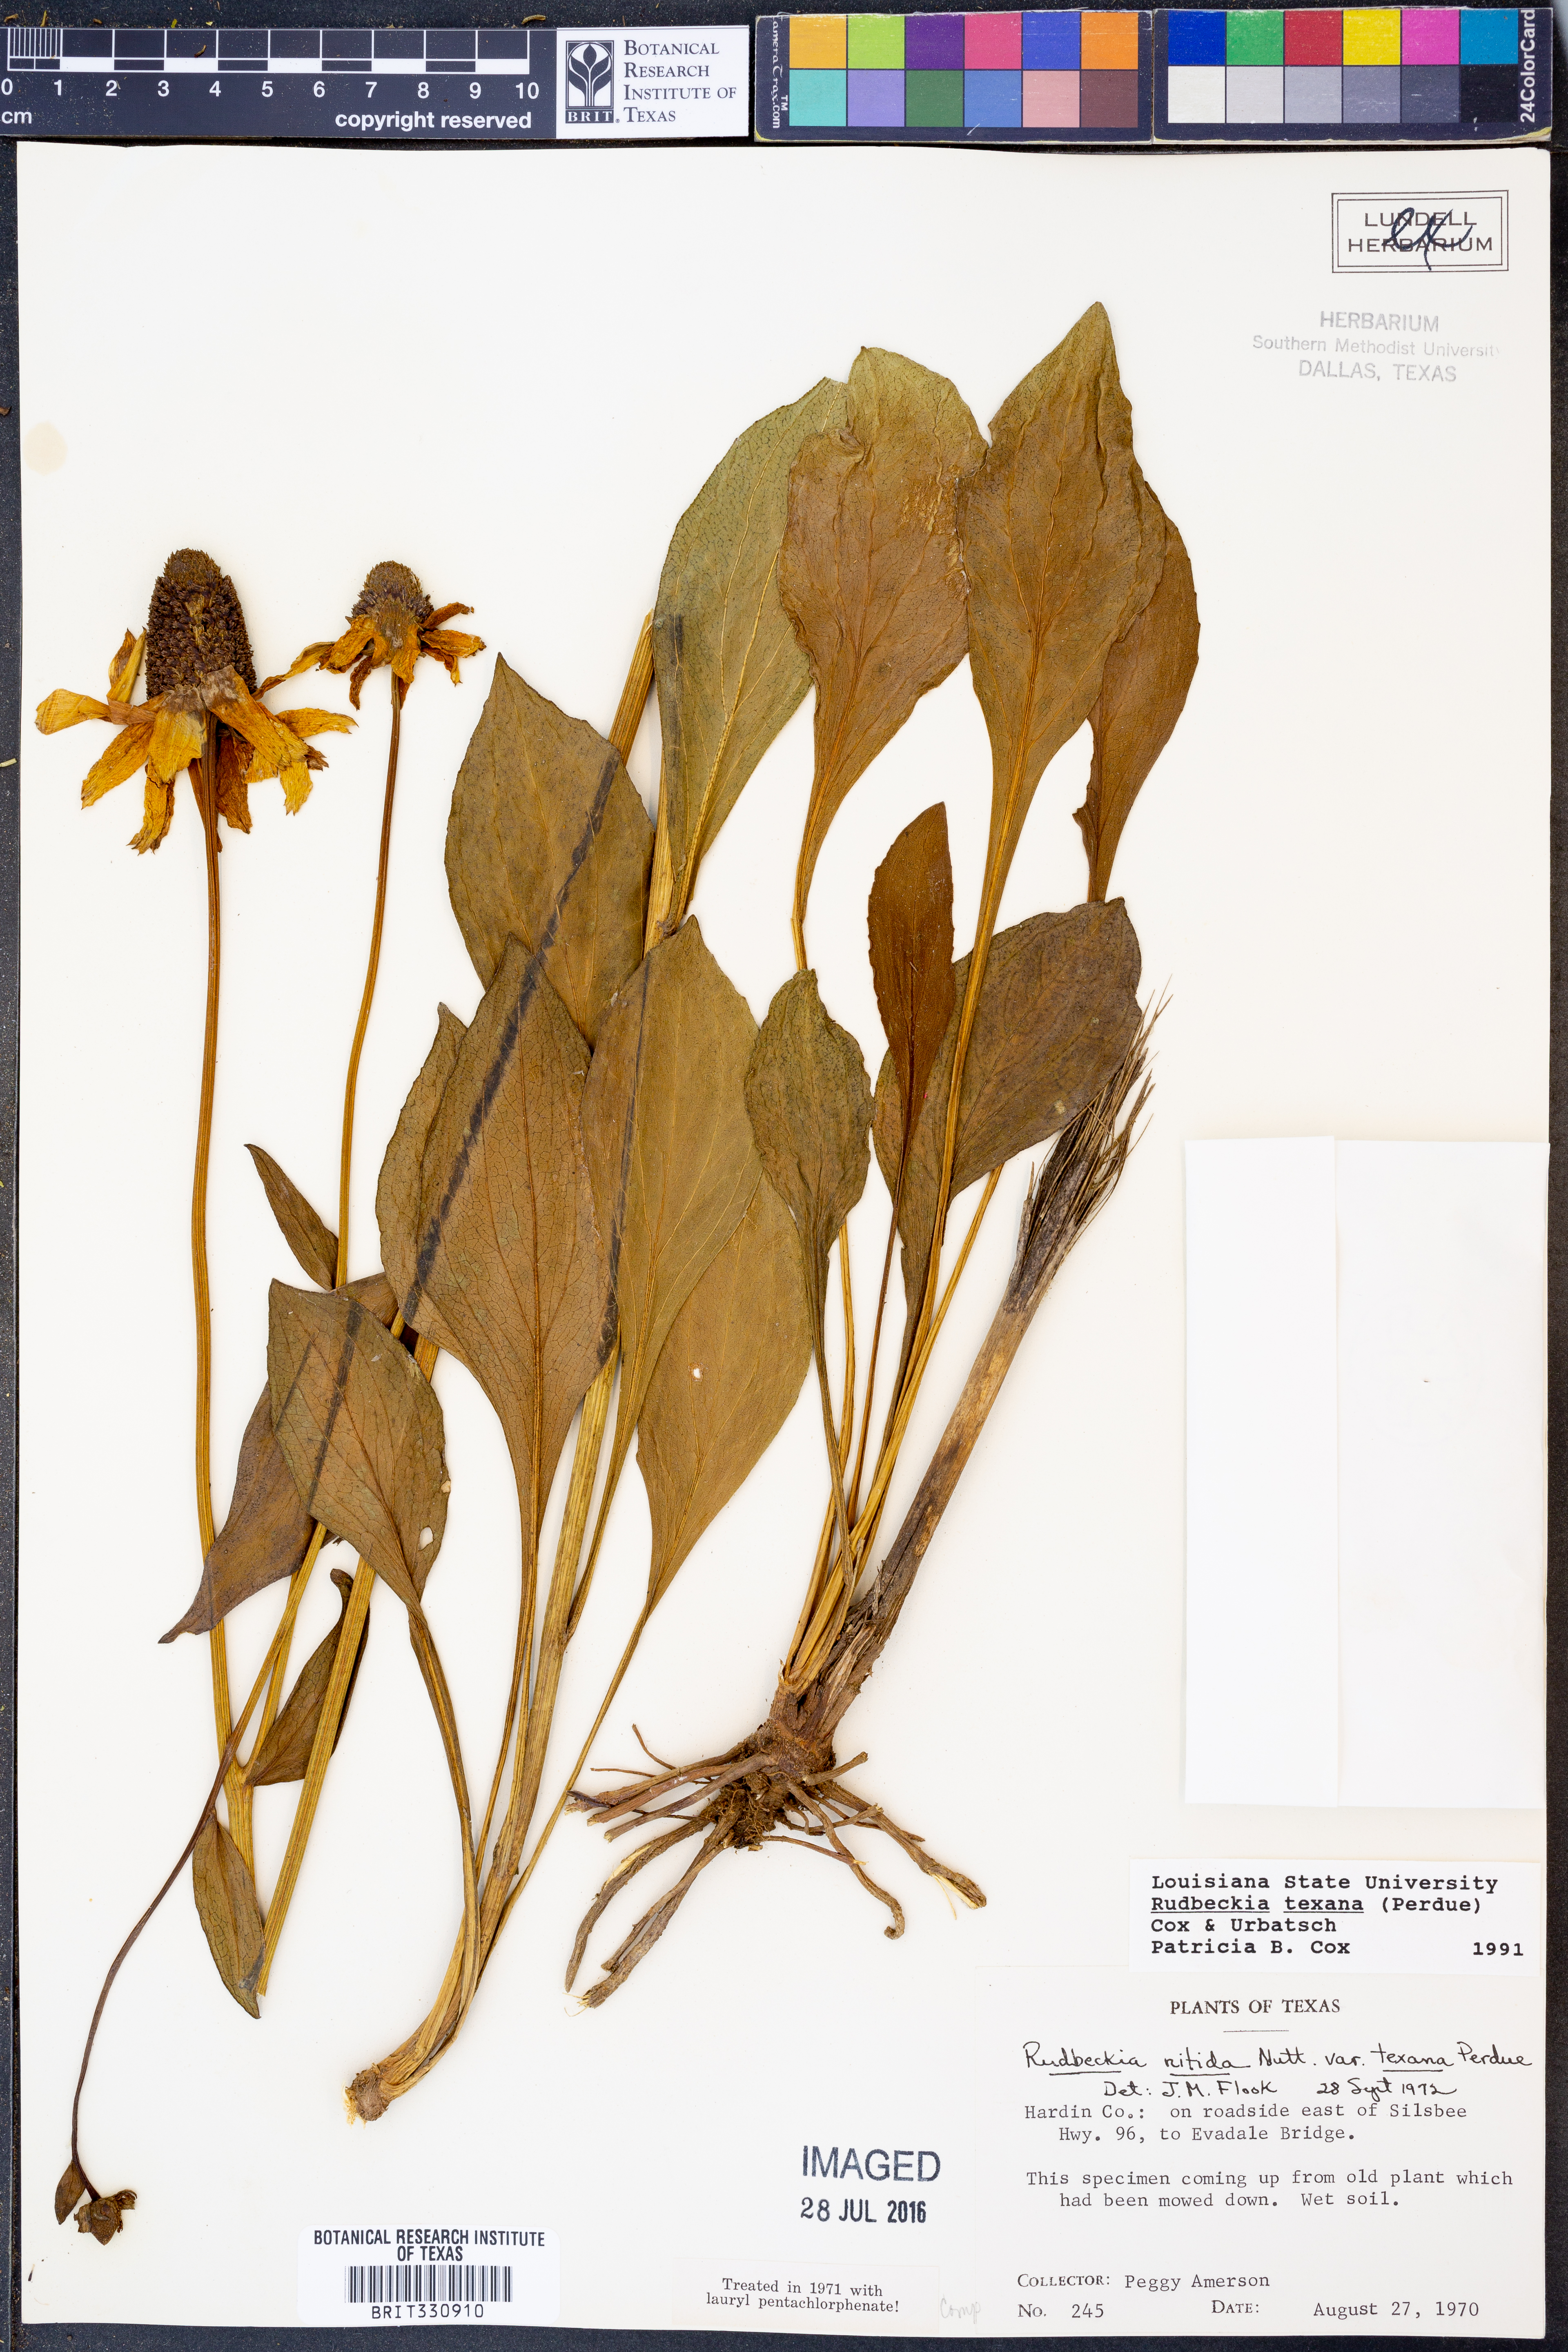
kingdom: Plantae
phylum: Tracheophyta
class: Magnoliopsida
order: Asterales
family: Asteraceae
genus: Rudbeckia
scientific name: Rudbeckia texana
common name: Texas coneflower
